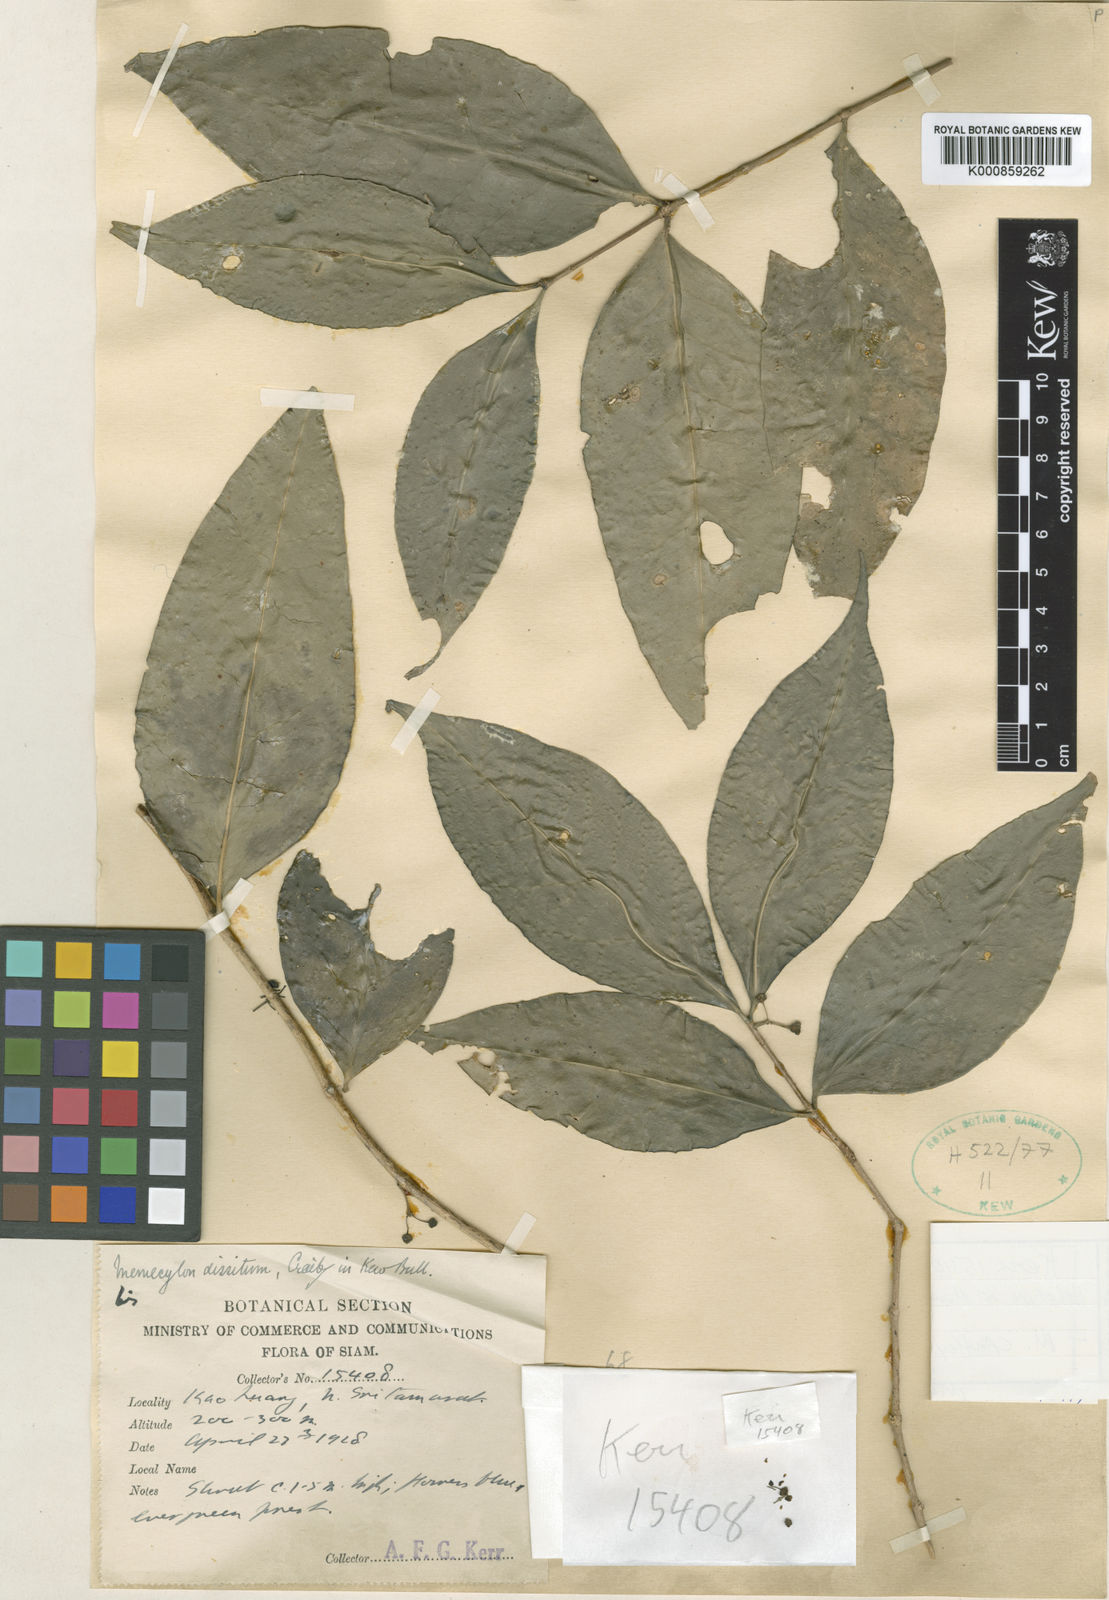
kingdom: Plantae
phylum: Tracheophyta
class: Magnoliopsida
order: Myrtales
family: Melastomataceae
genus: Memecylon
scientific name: Memecylon cantleyi
